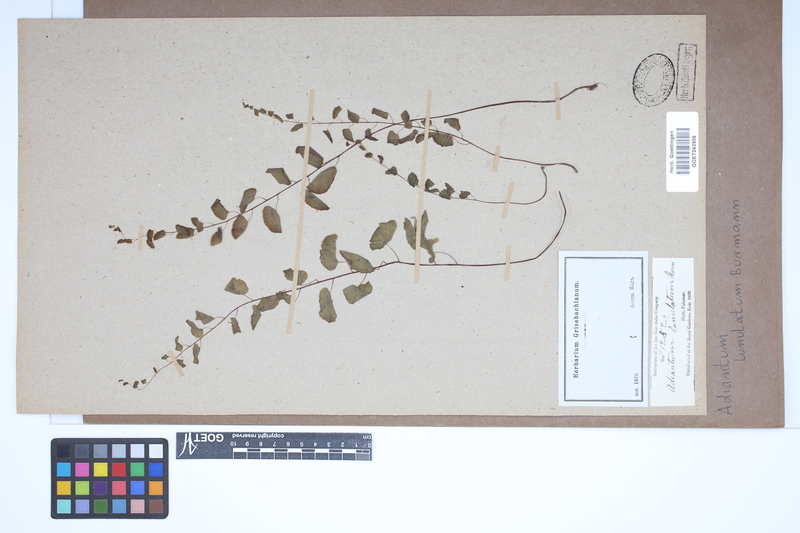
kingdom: Plantae
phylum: Tracheophyta
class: Polypodiopsida
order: Polypodiales
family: Pteridaceae
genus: Adiantum
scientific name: Adiantum philippense
